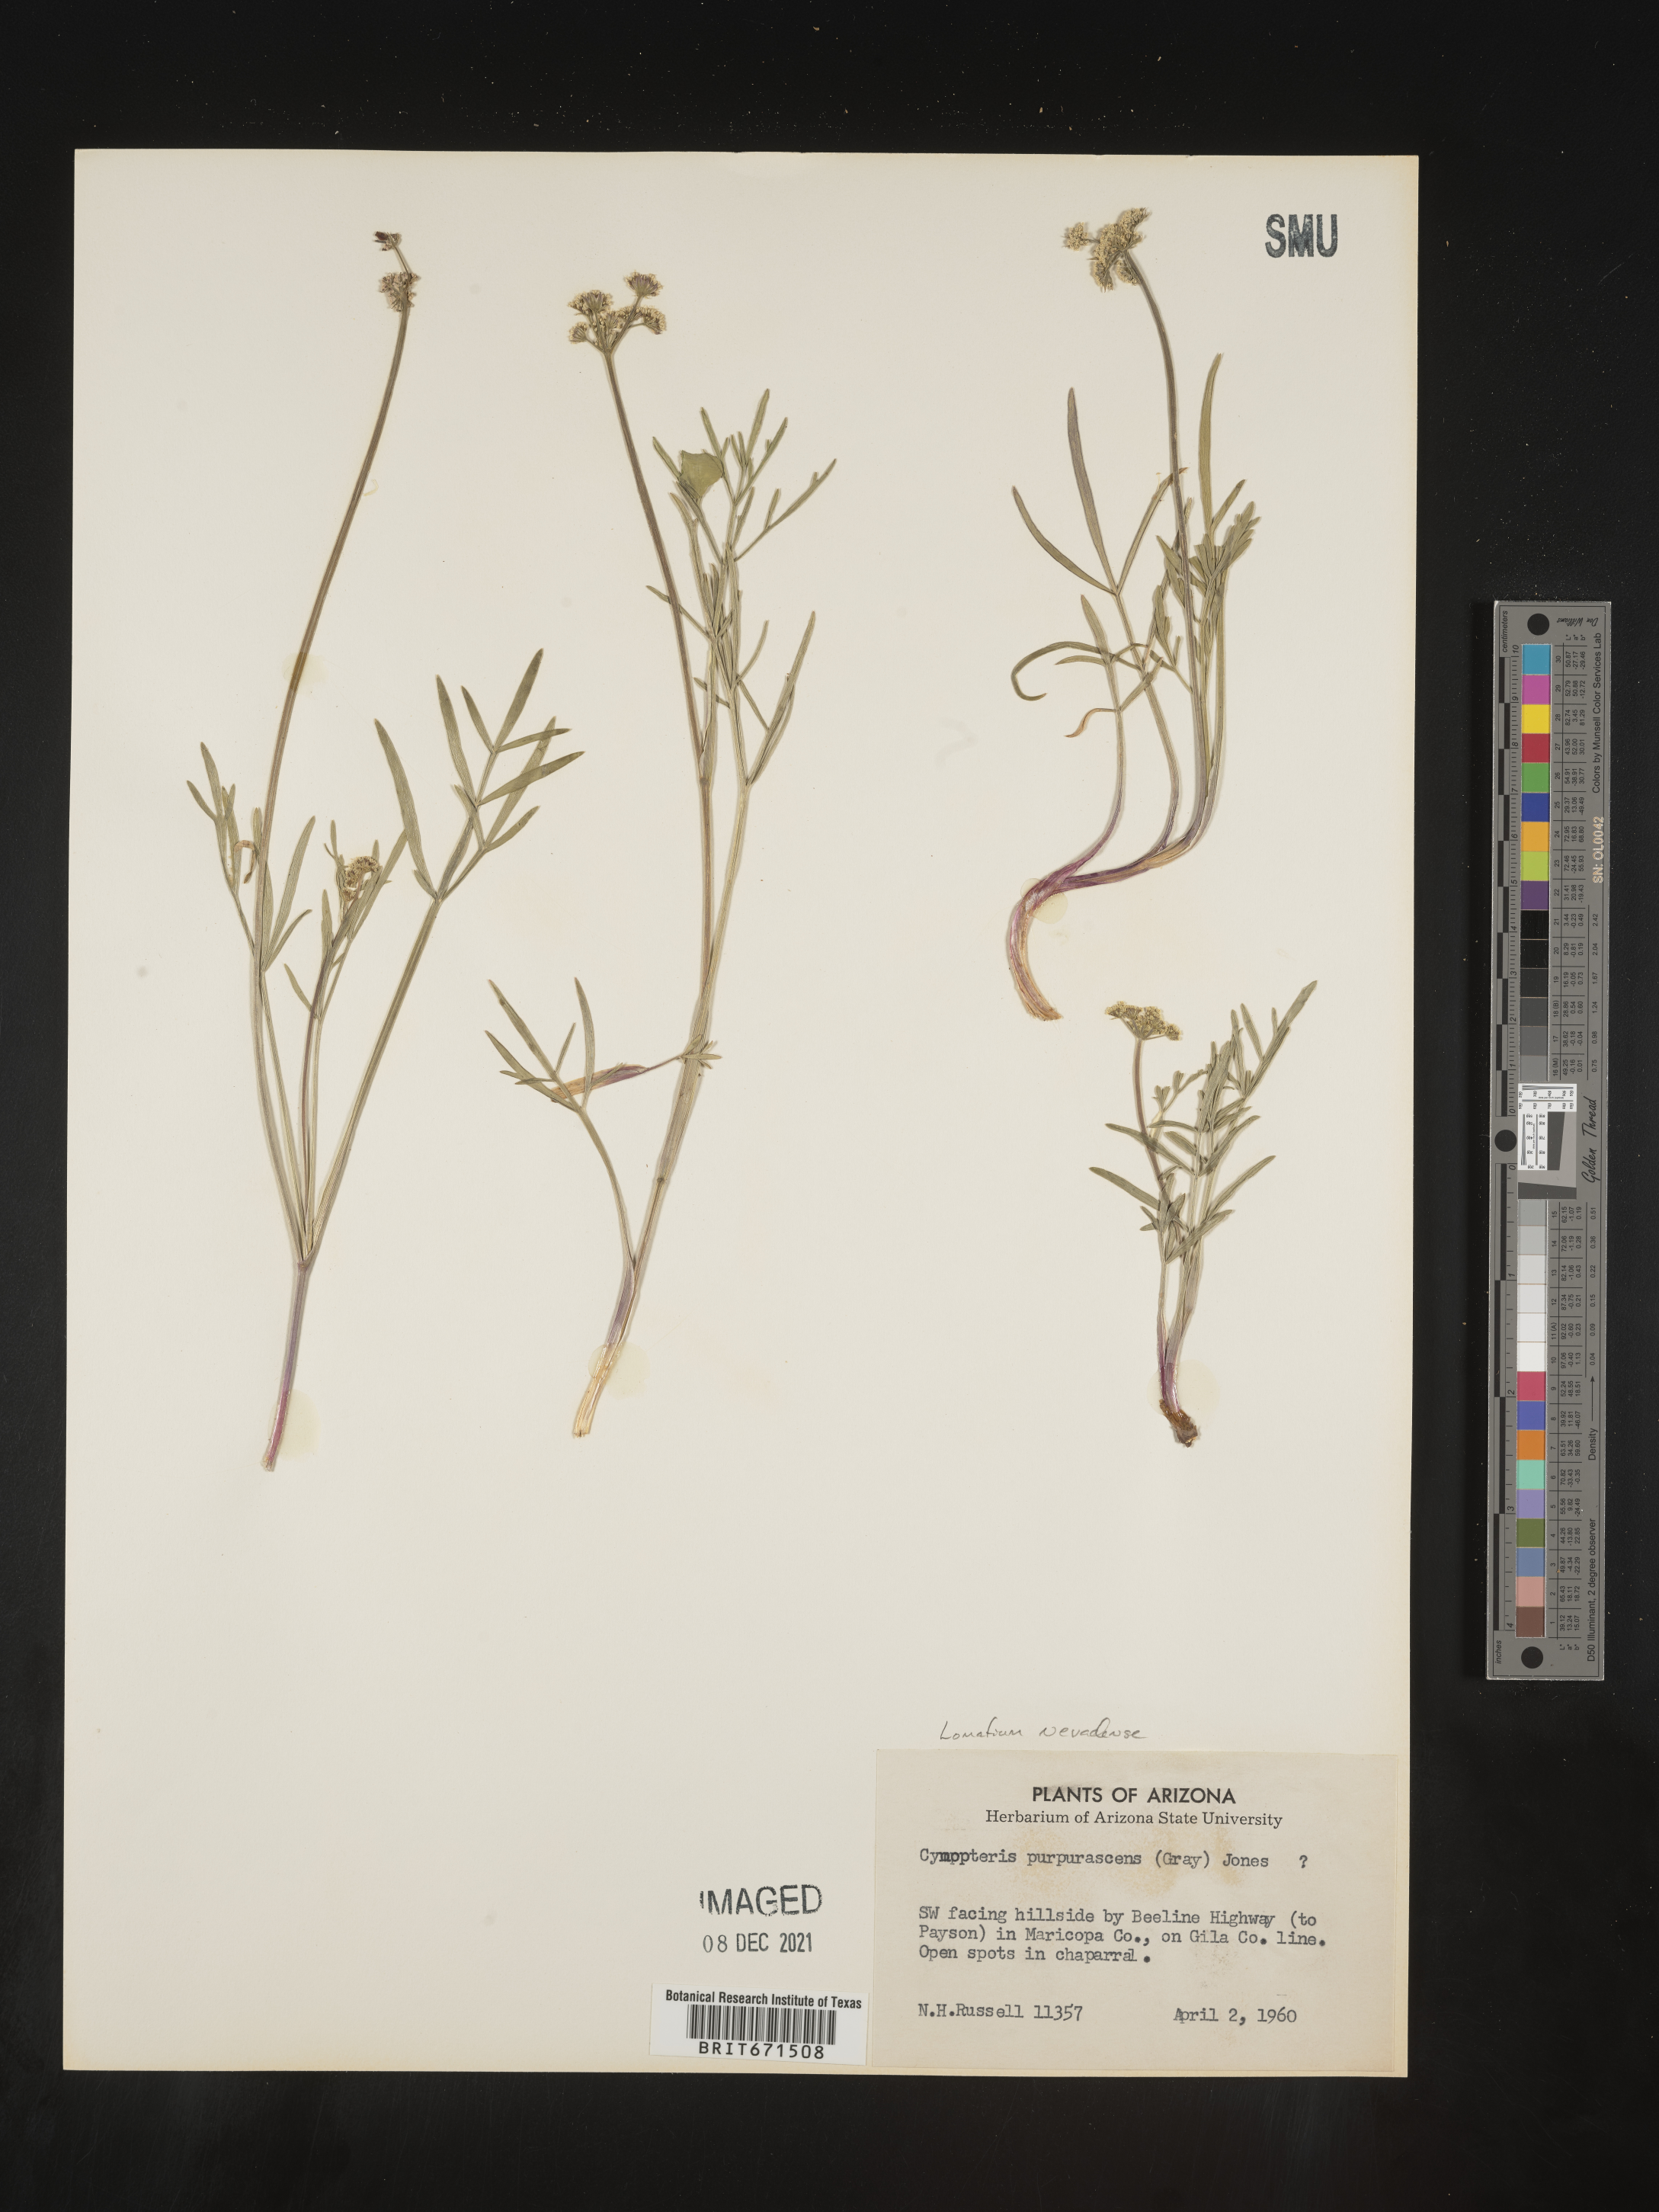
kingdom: Plantae
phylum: Tracheophyta
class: Magnoliopsida
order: Apiales
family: Apiaceae
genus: Lomatium
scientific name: Lomatium nuttallii
